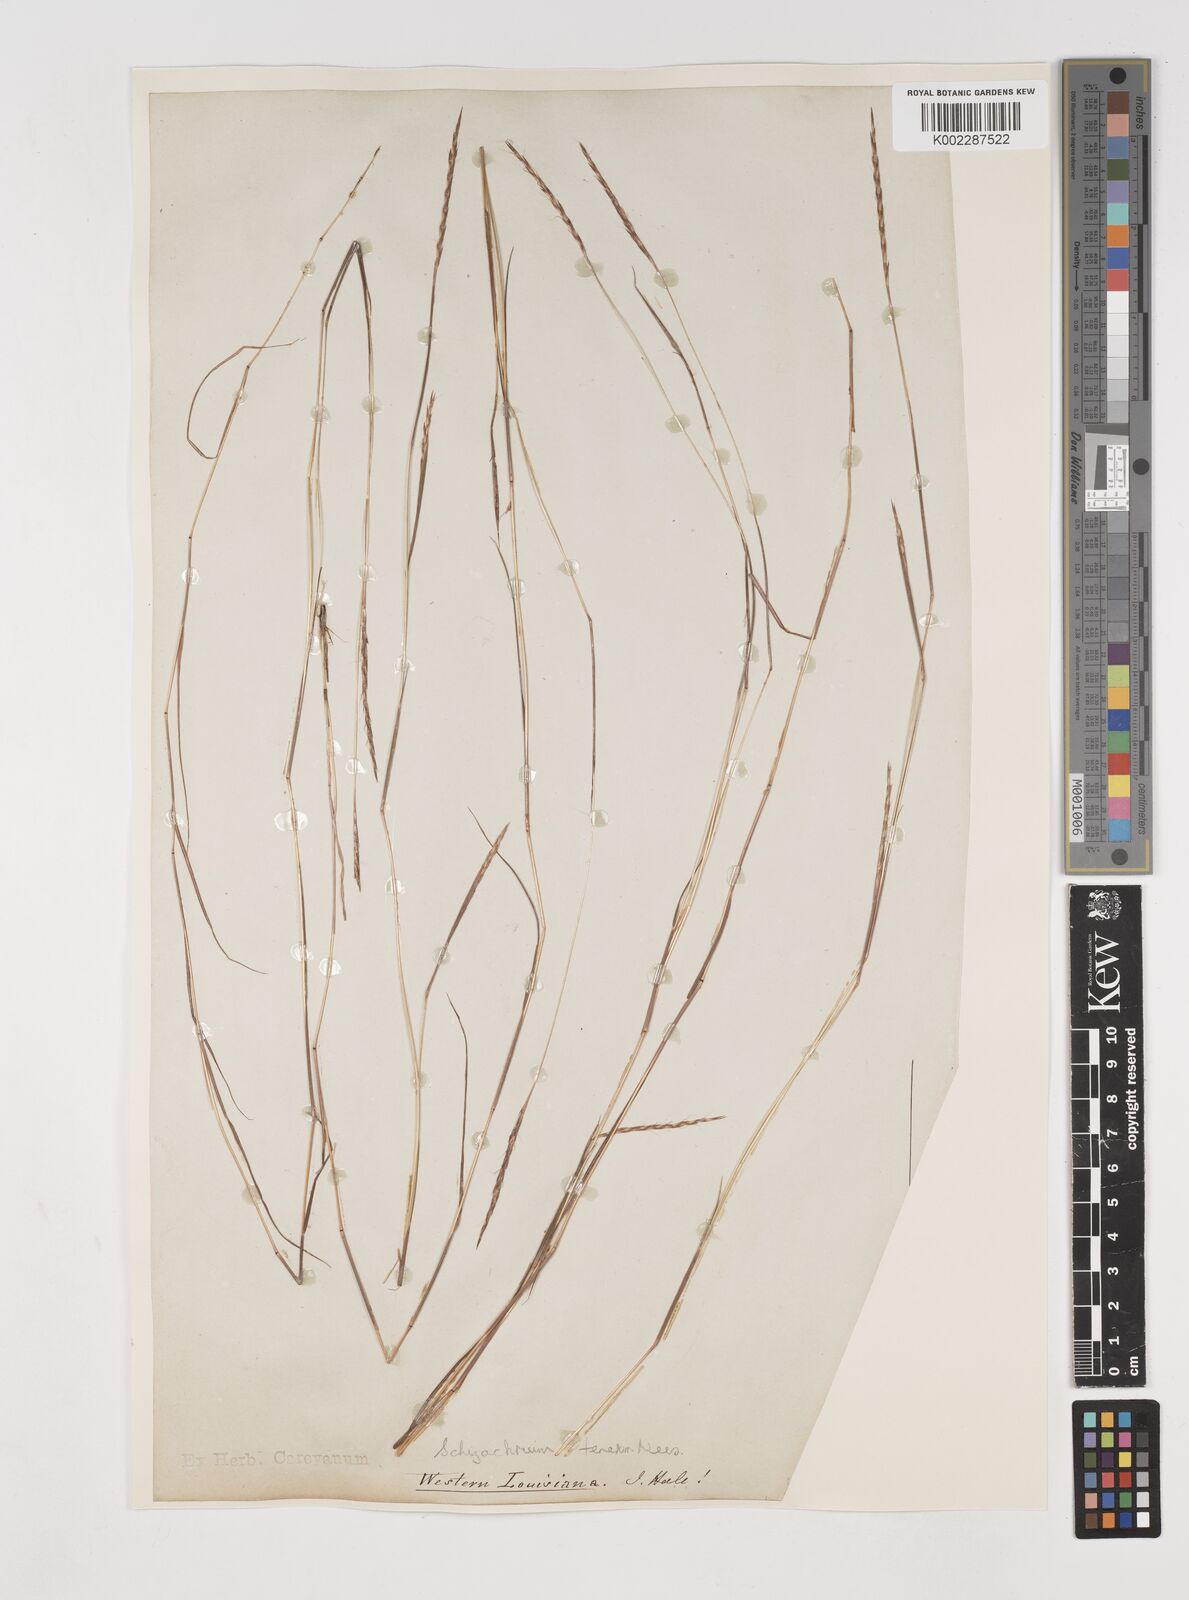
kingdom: Plantae
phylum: Tracheophyta
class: Liliopsida
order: Poales
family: Poaceae
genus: Andropogon
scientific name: Andropogon tener
